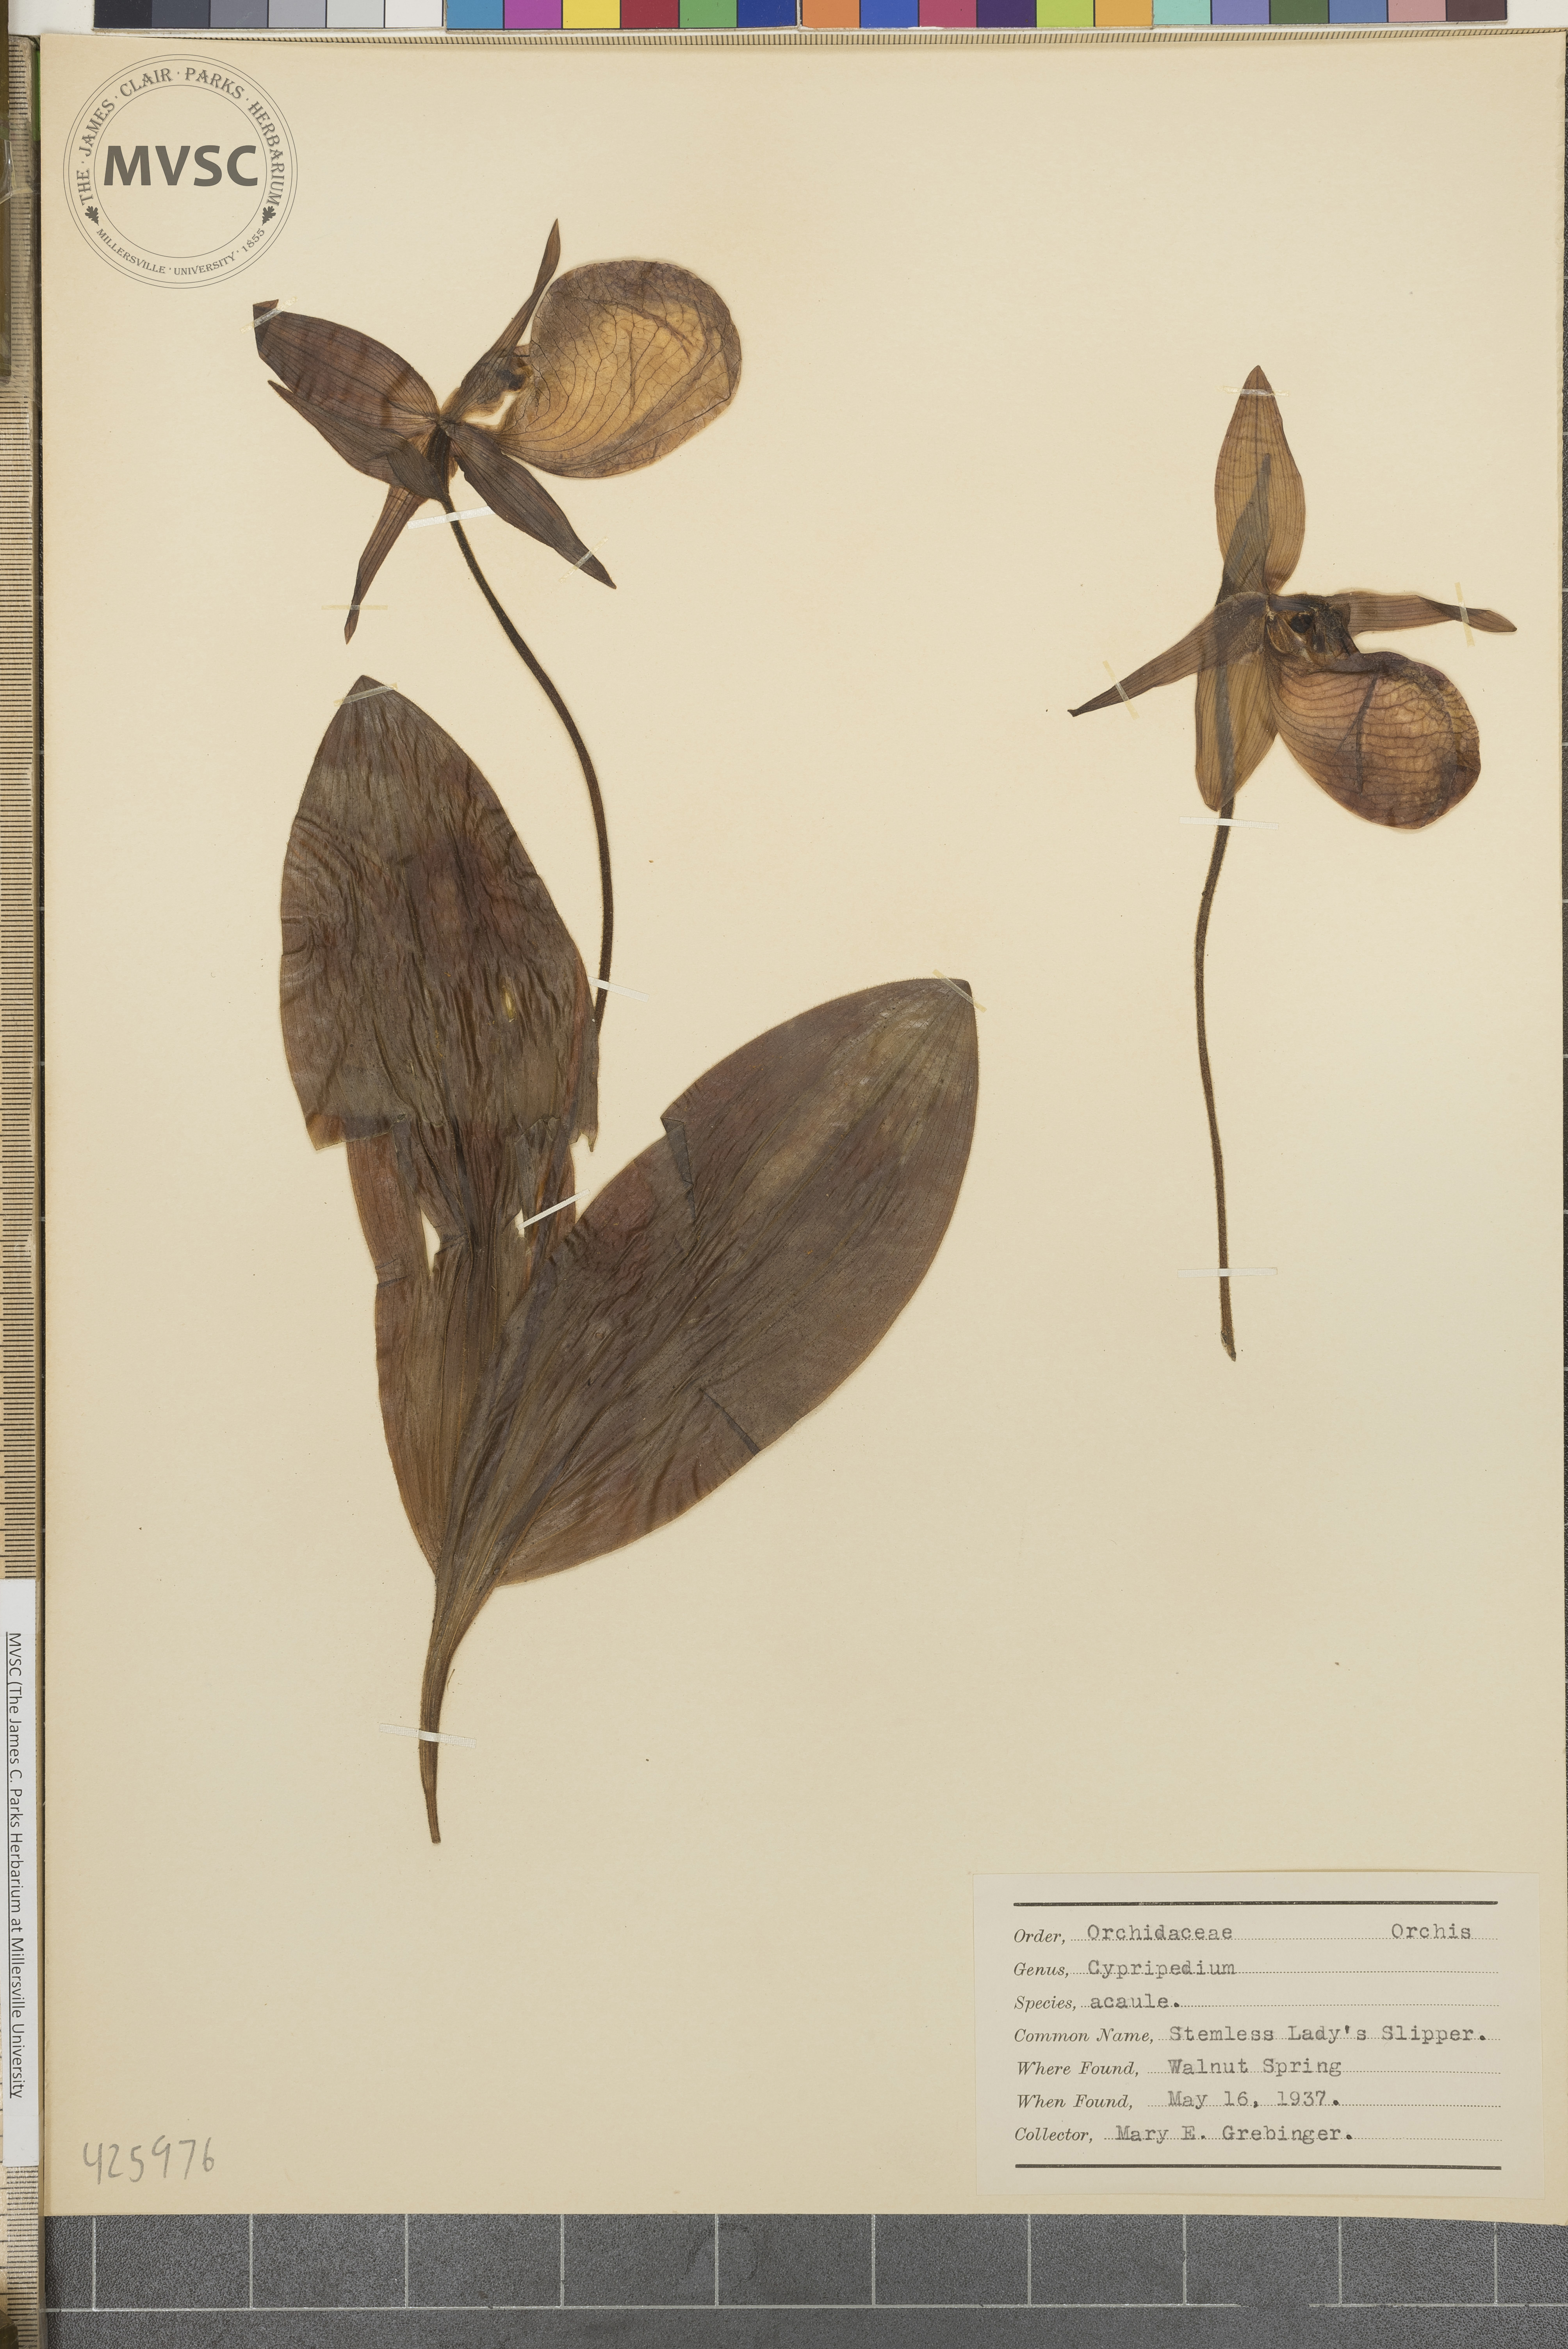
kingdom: Plantae
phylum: Tracheophyta
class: Liliopsida
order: Asparagales
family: Orchidaceae
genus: Cypripedium
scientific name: Cypripedium acaule
